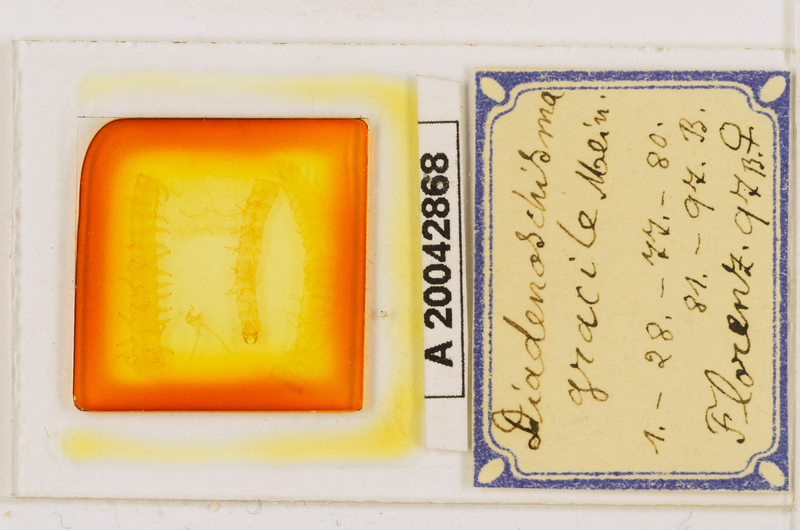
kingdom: Animalia
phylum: Arthropoda
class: Chilopoda
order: Geophilomorpha
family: Himantariidae
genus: Stigmatogaster
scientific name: Stigmatogaster
